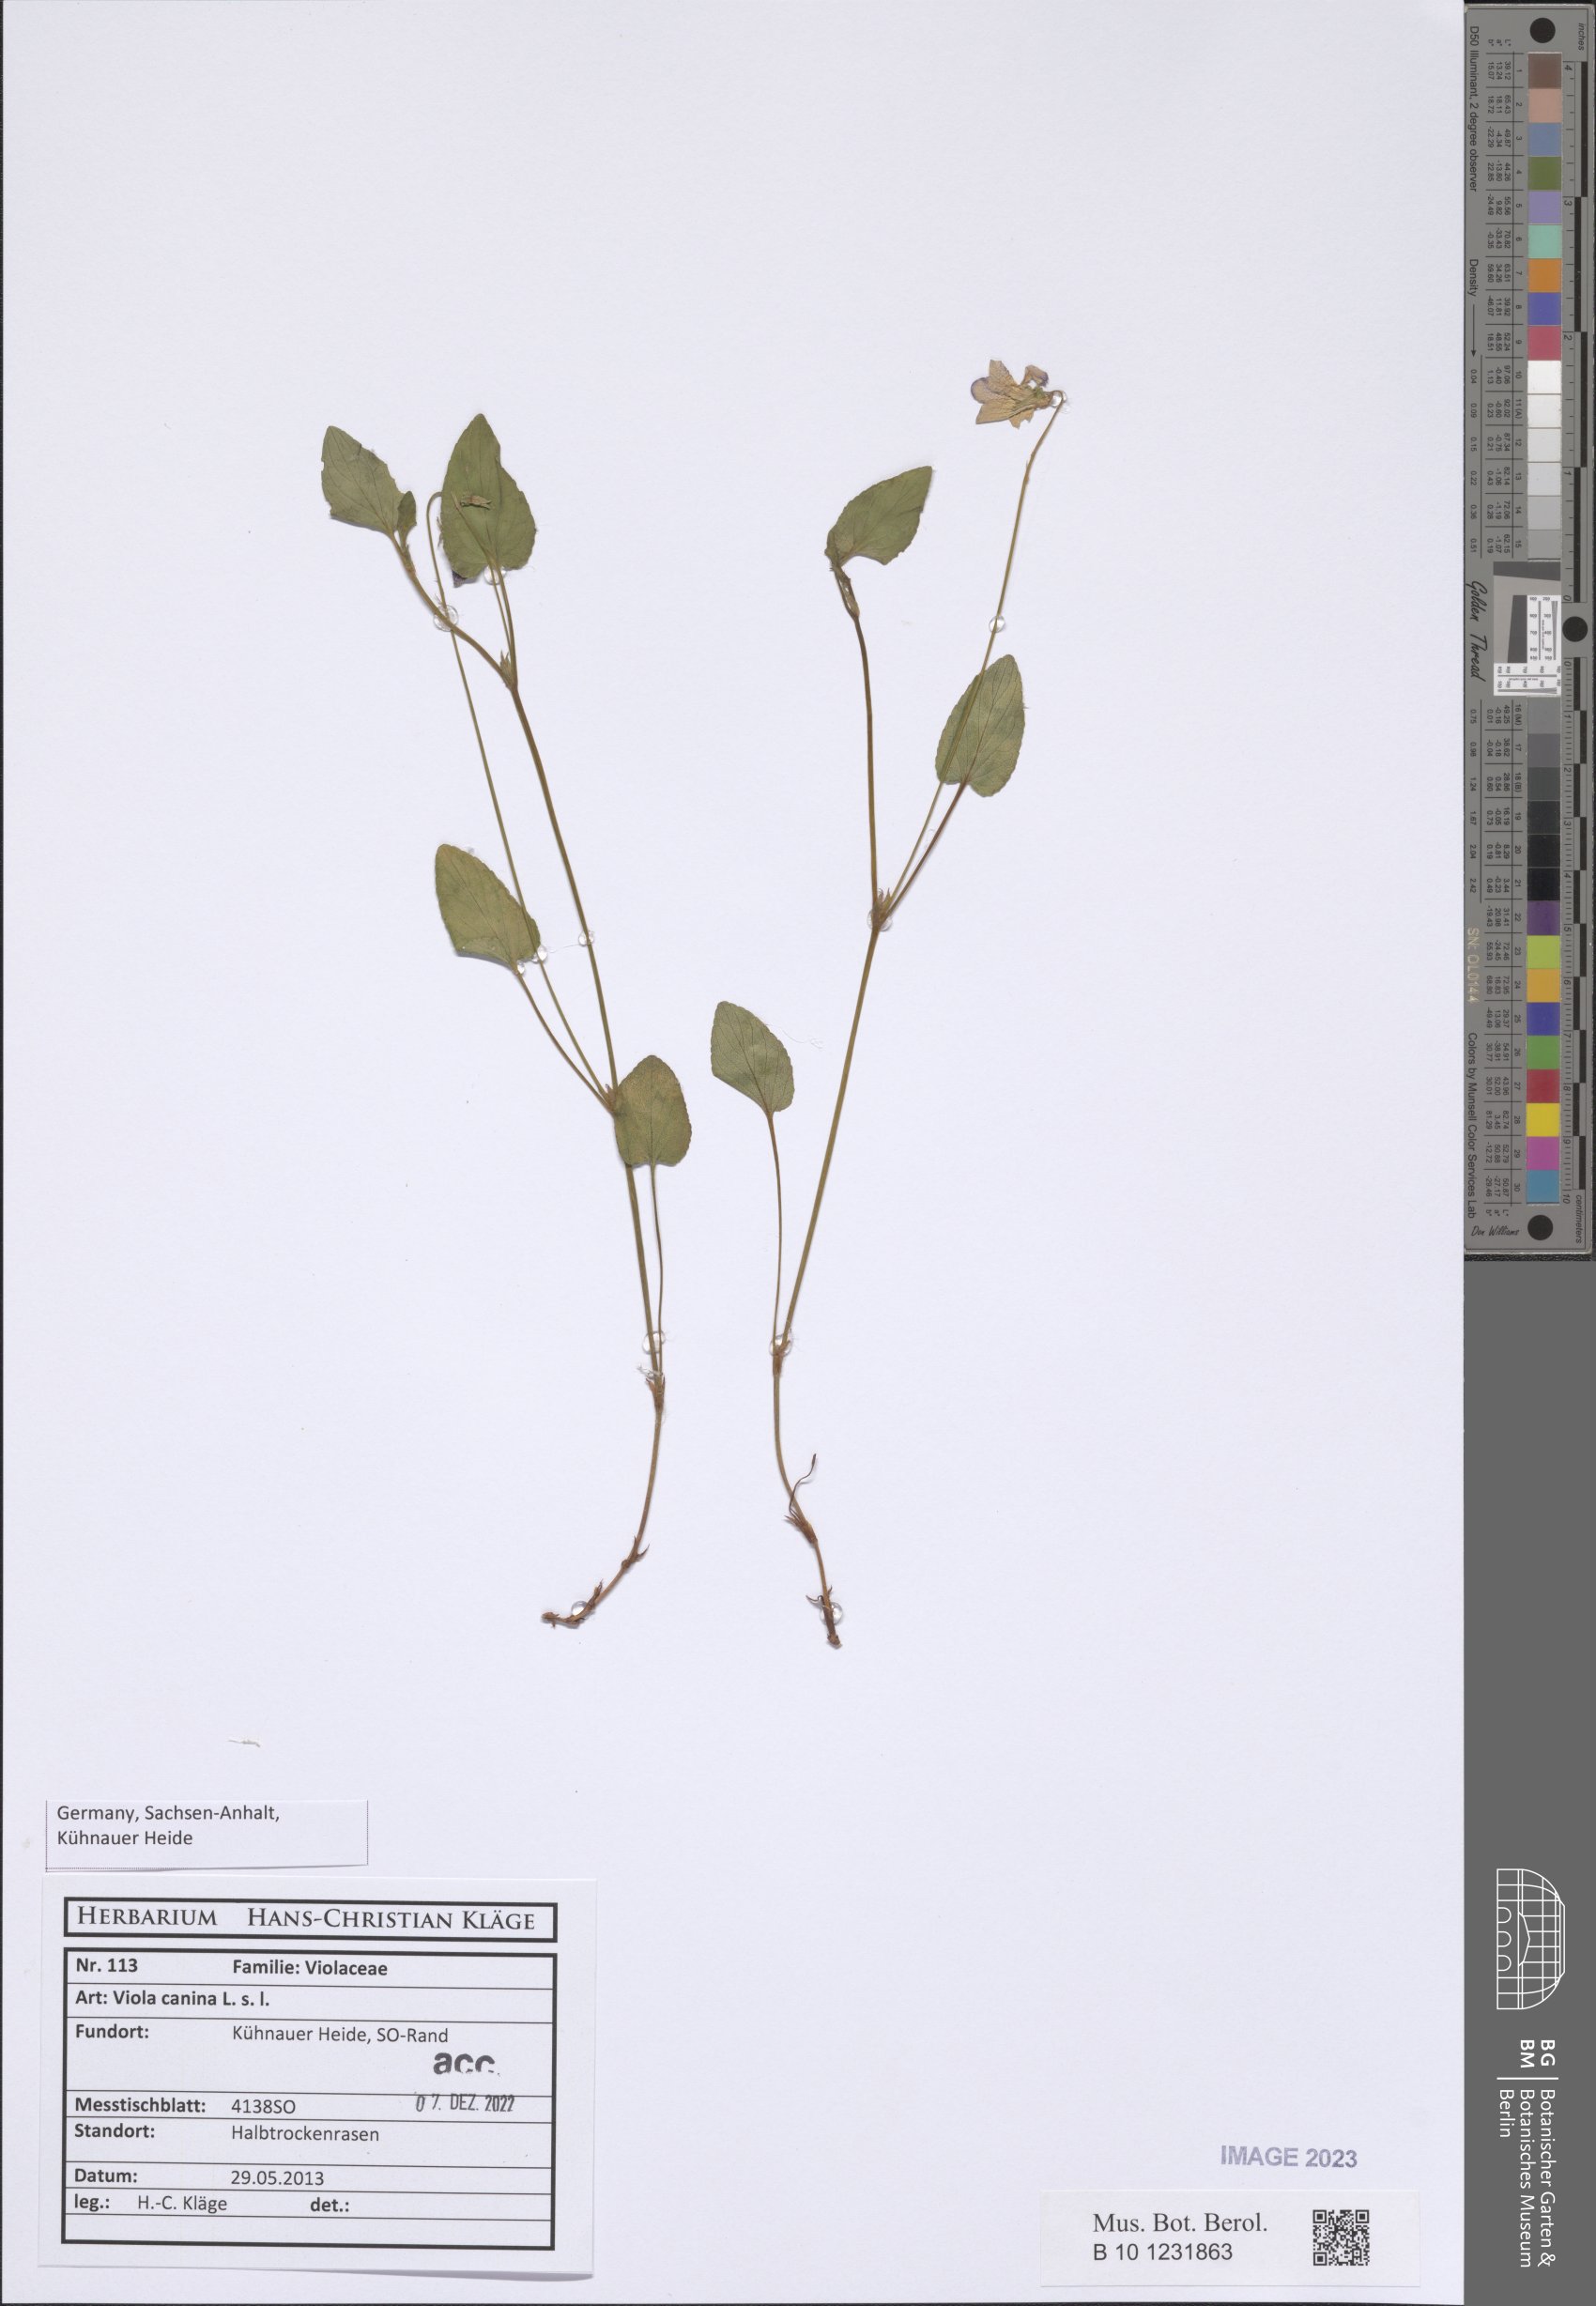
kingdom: Plantae
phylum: Tracheophyta
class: Magnoliopsida
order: Malpighiales
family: Violaceae
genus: Viola
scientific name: Viola canina
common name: Heath dog-violet
